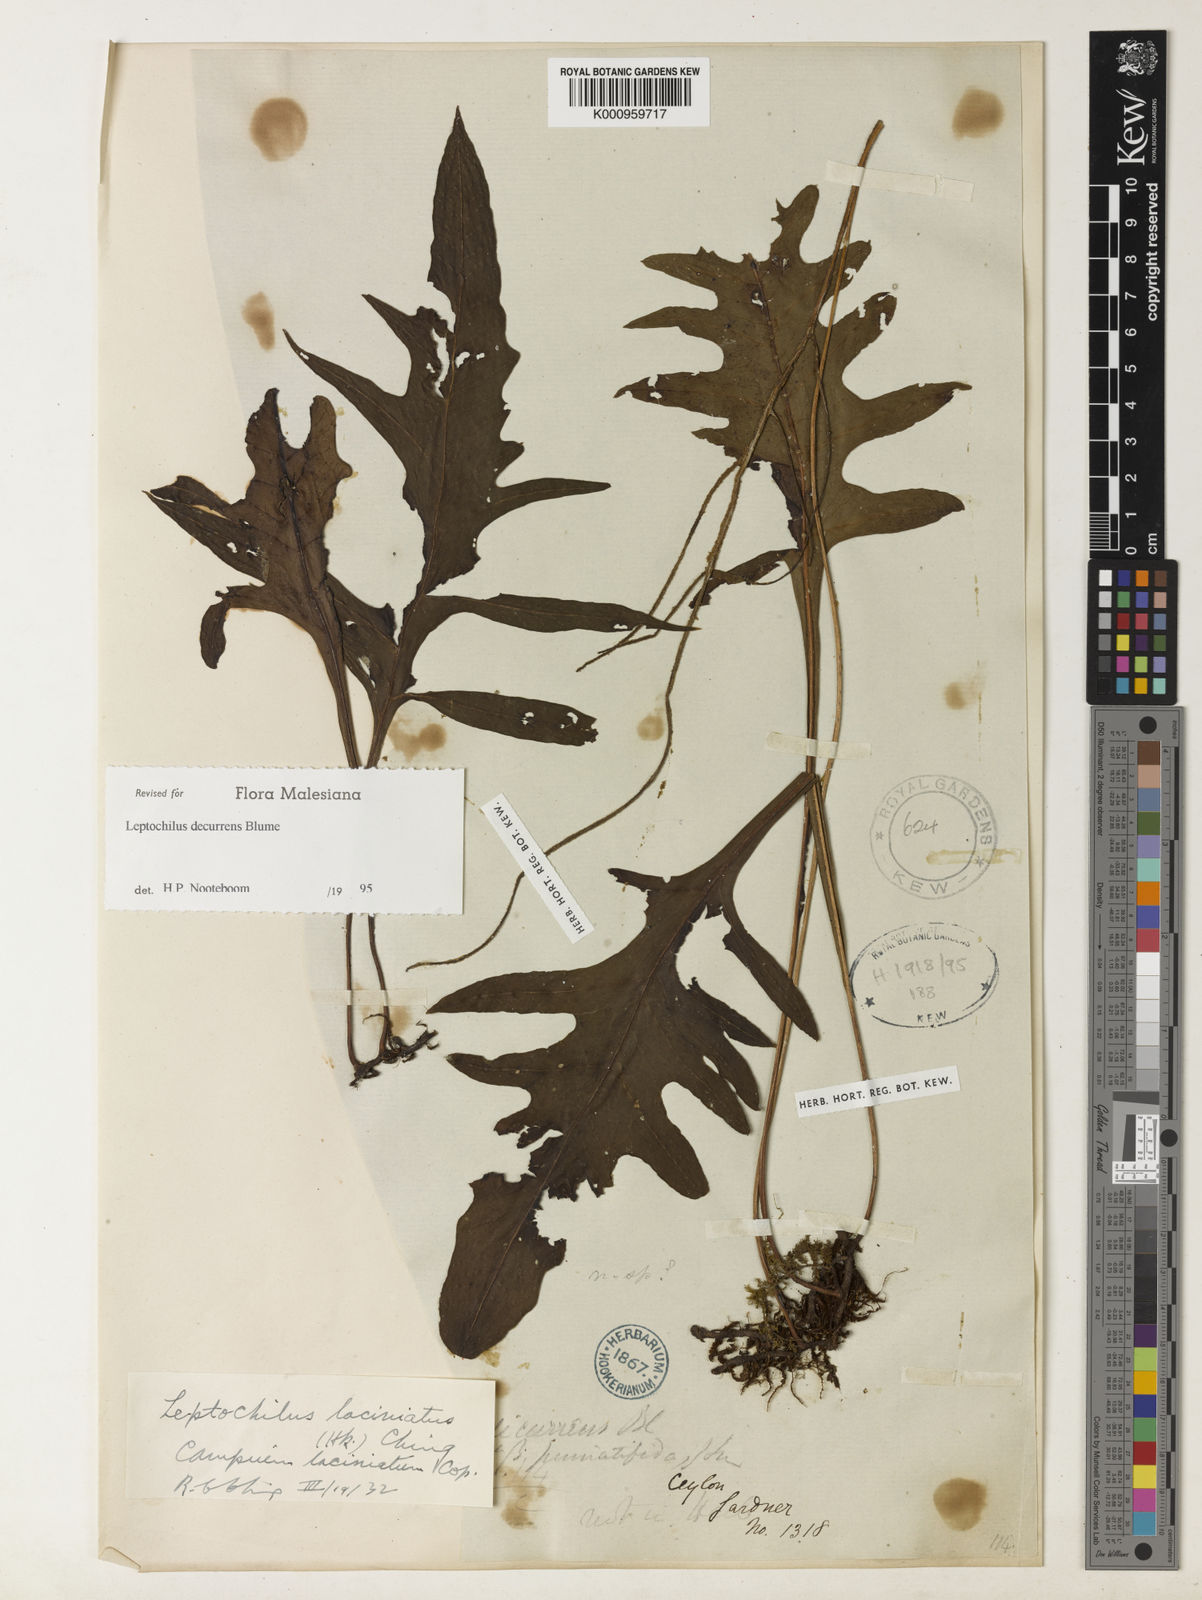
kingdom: Plantae
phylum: Tracheophyta
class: Polypodiopsida
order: Polypodiales
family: Polypodiaceae
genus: Leptochilus
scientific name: Leptochilus decurrens
